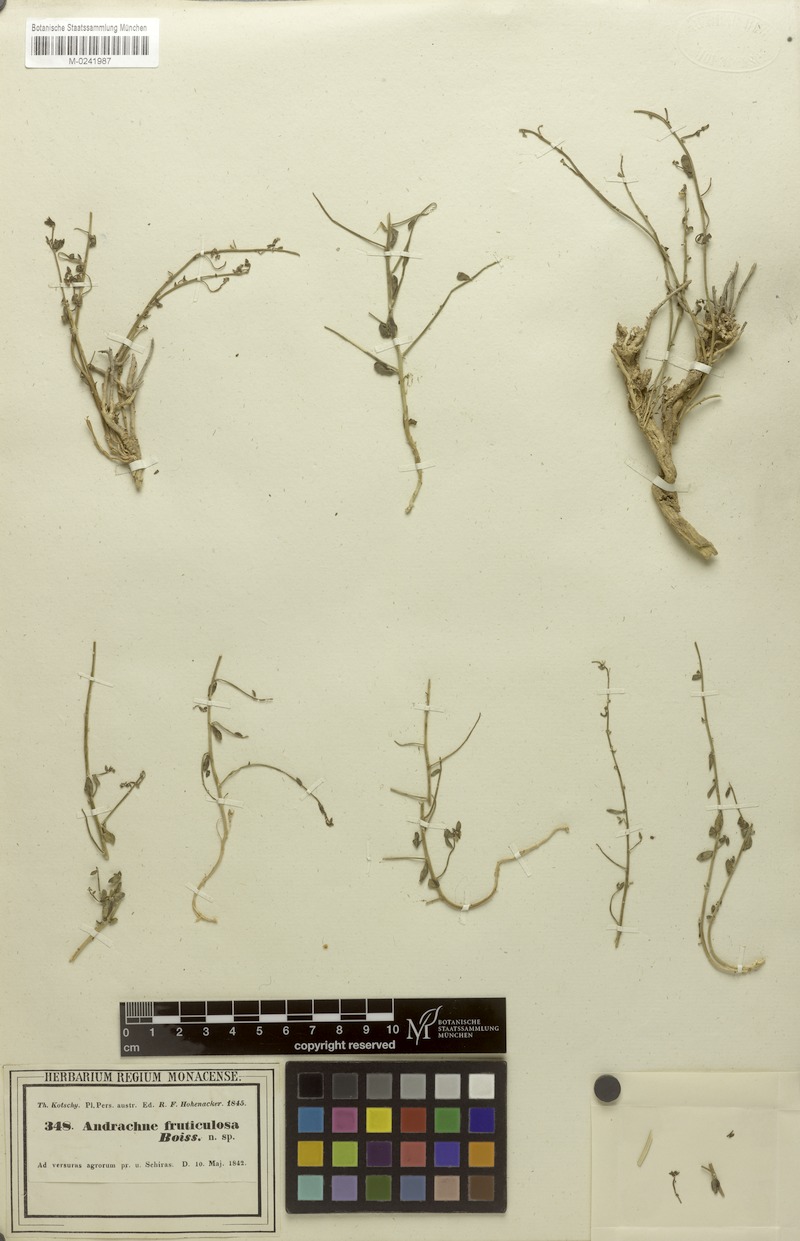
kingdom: Plantae
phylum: Tracheophyta
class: Magnoliopsida
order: Malpighiales
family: Phyllanthaceae
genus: Andrachne
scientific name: Andrachne fruticulosa
